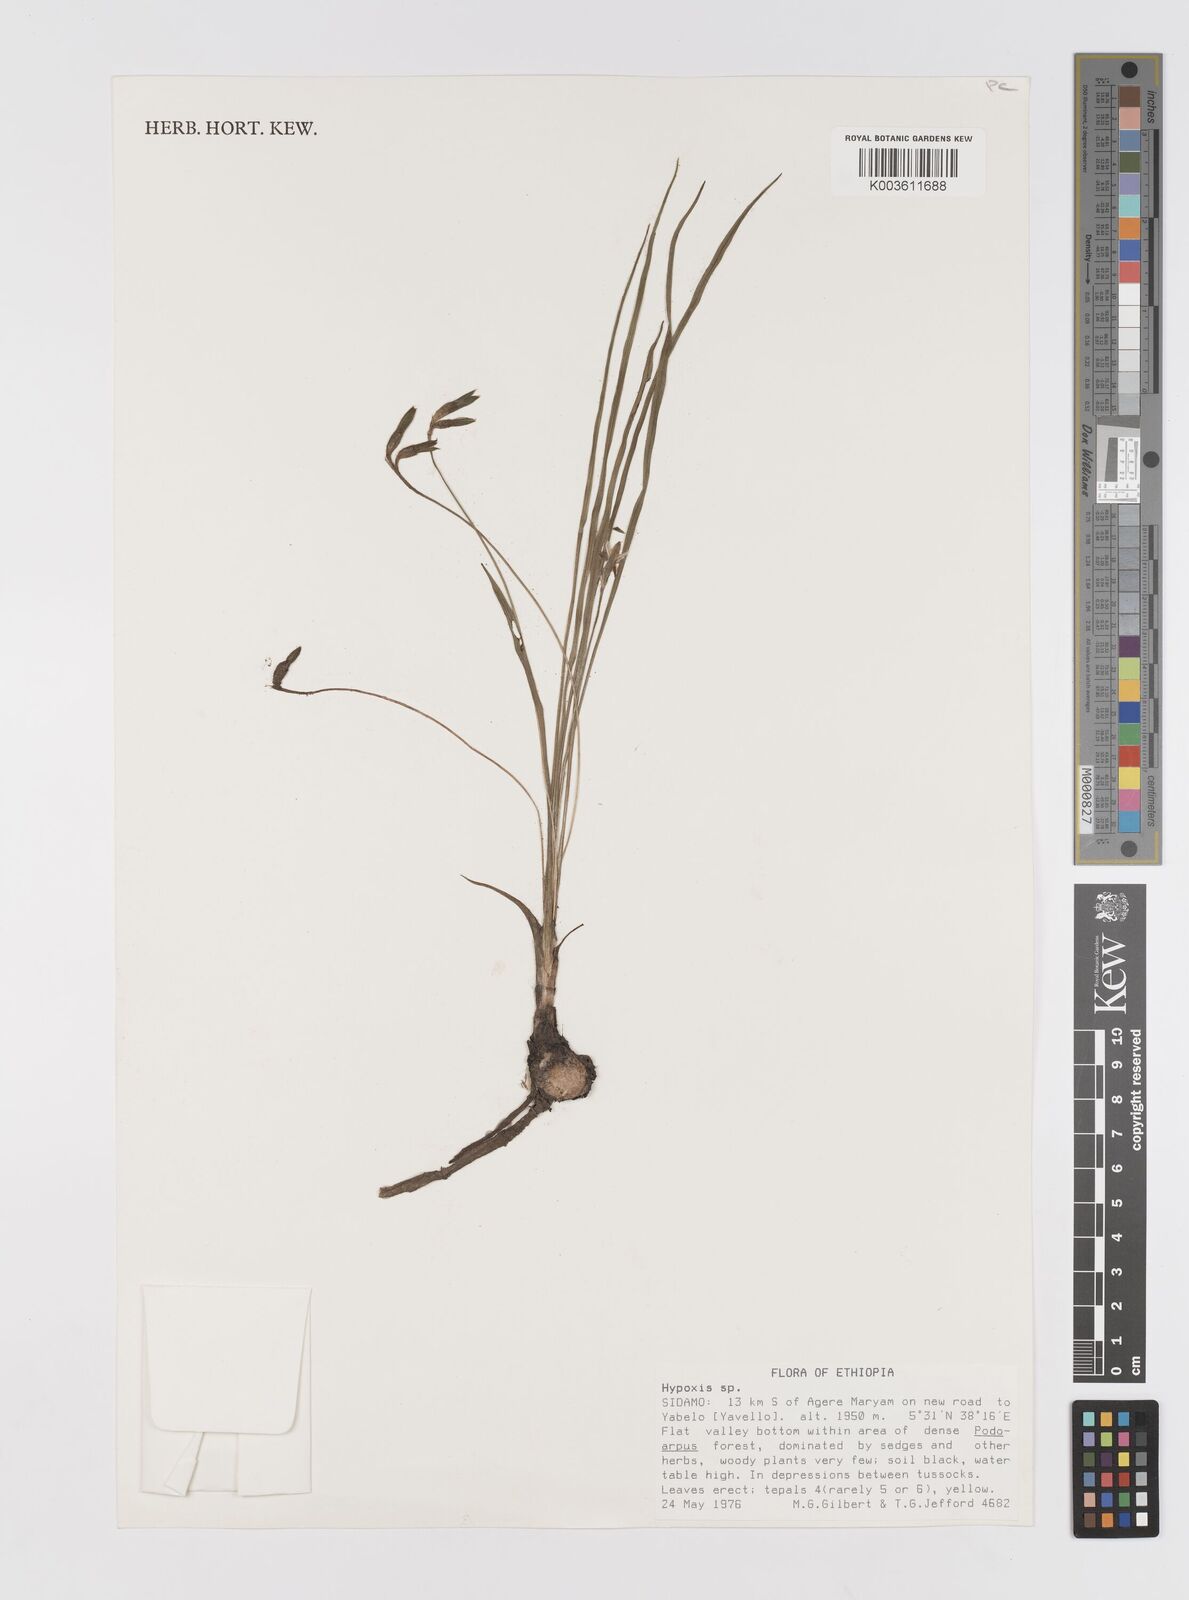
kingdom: Plantae
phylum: Tracheophyta
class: Liliopsida
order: Asparagales
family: Hypoxidaceae
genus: Hypoxis
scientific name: Hypoxis schimperi
